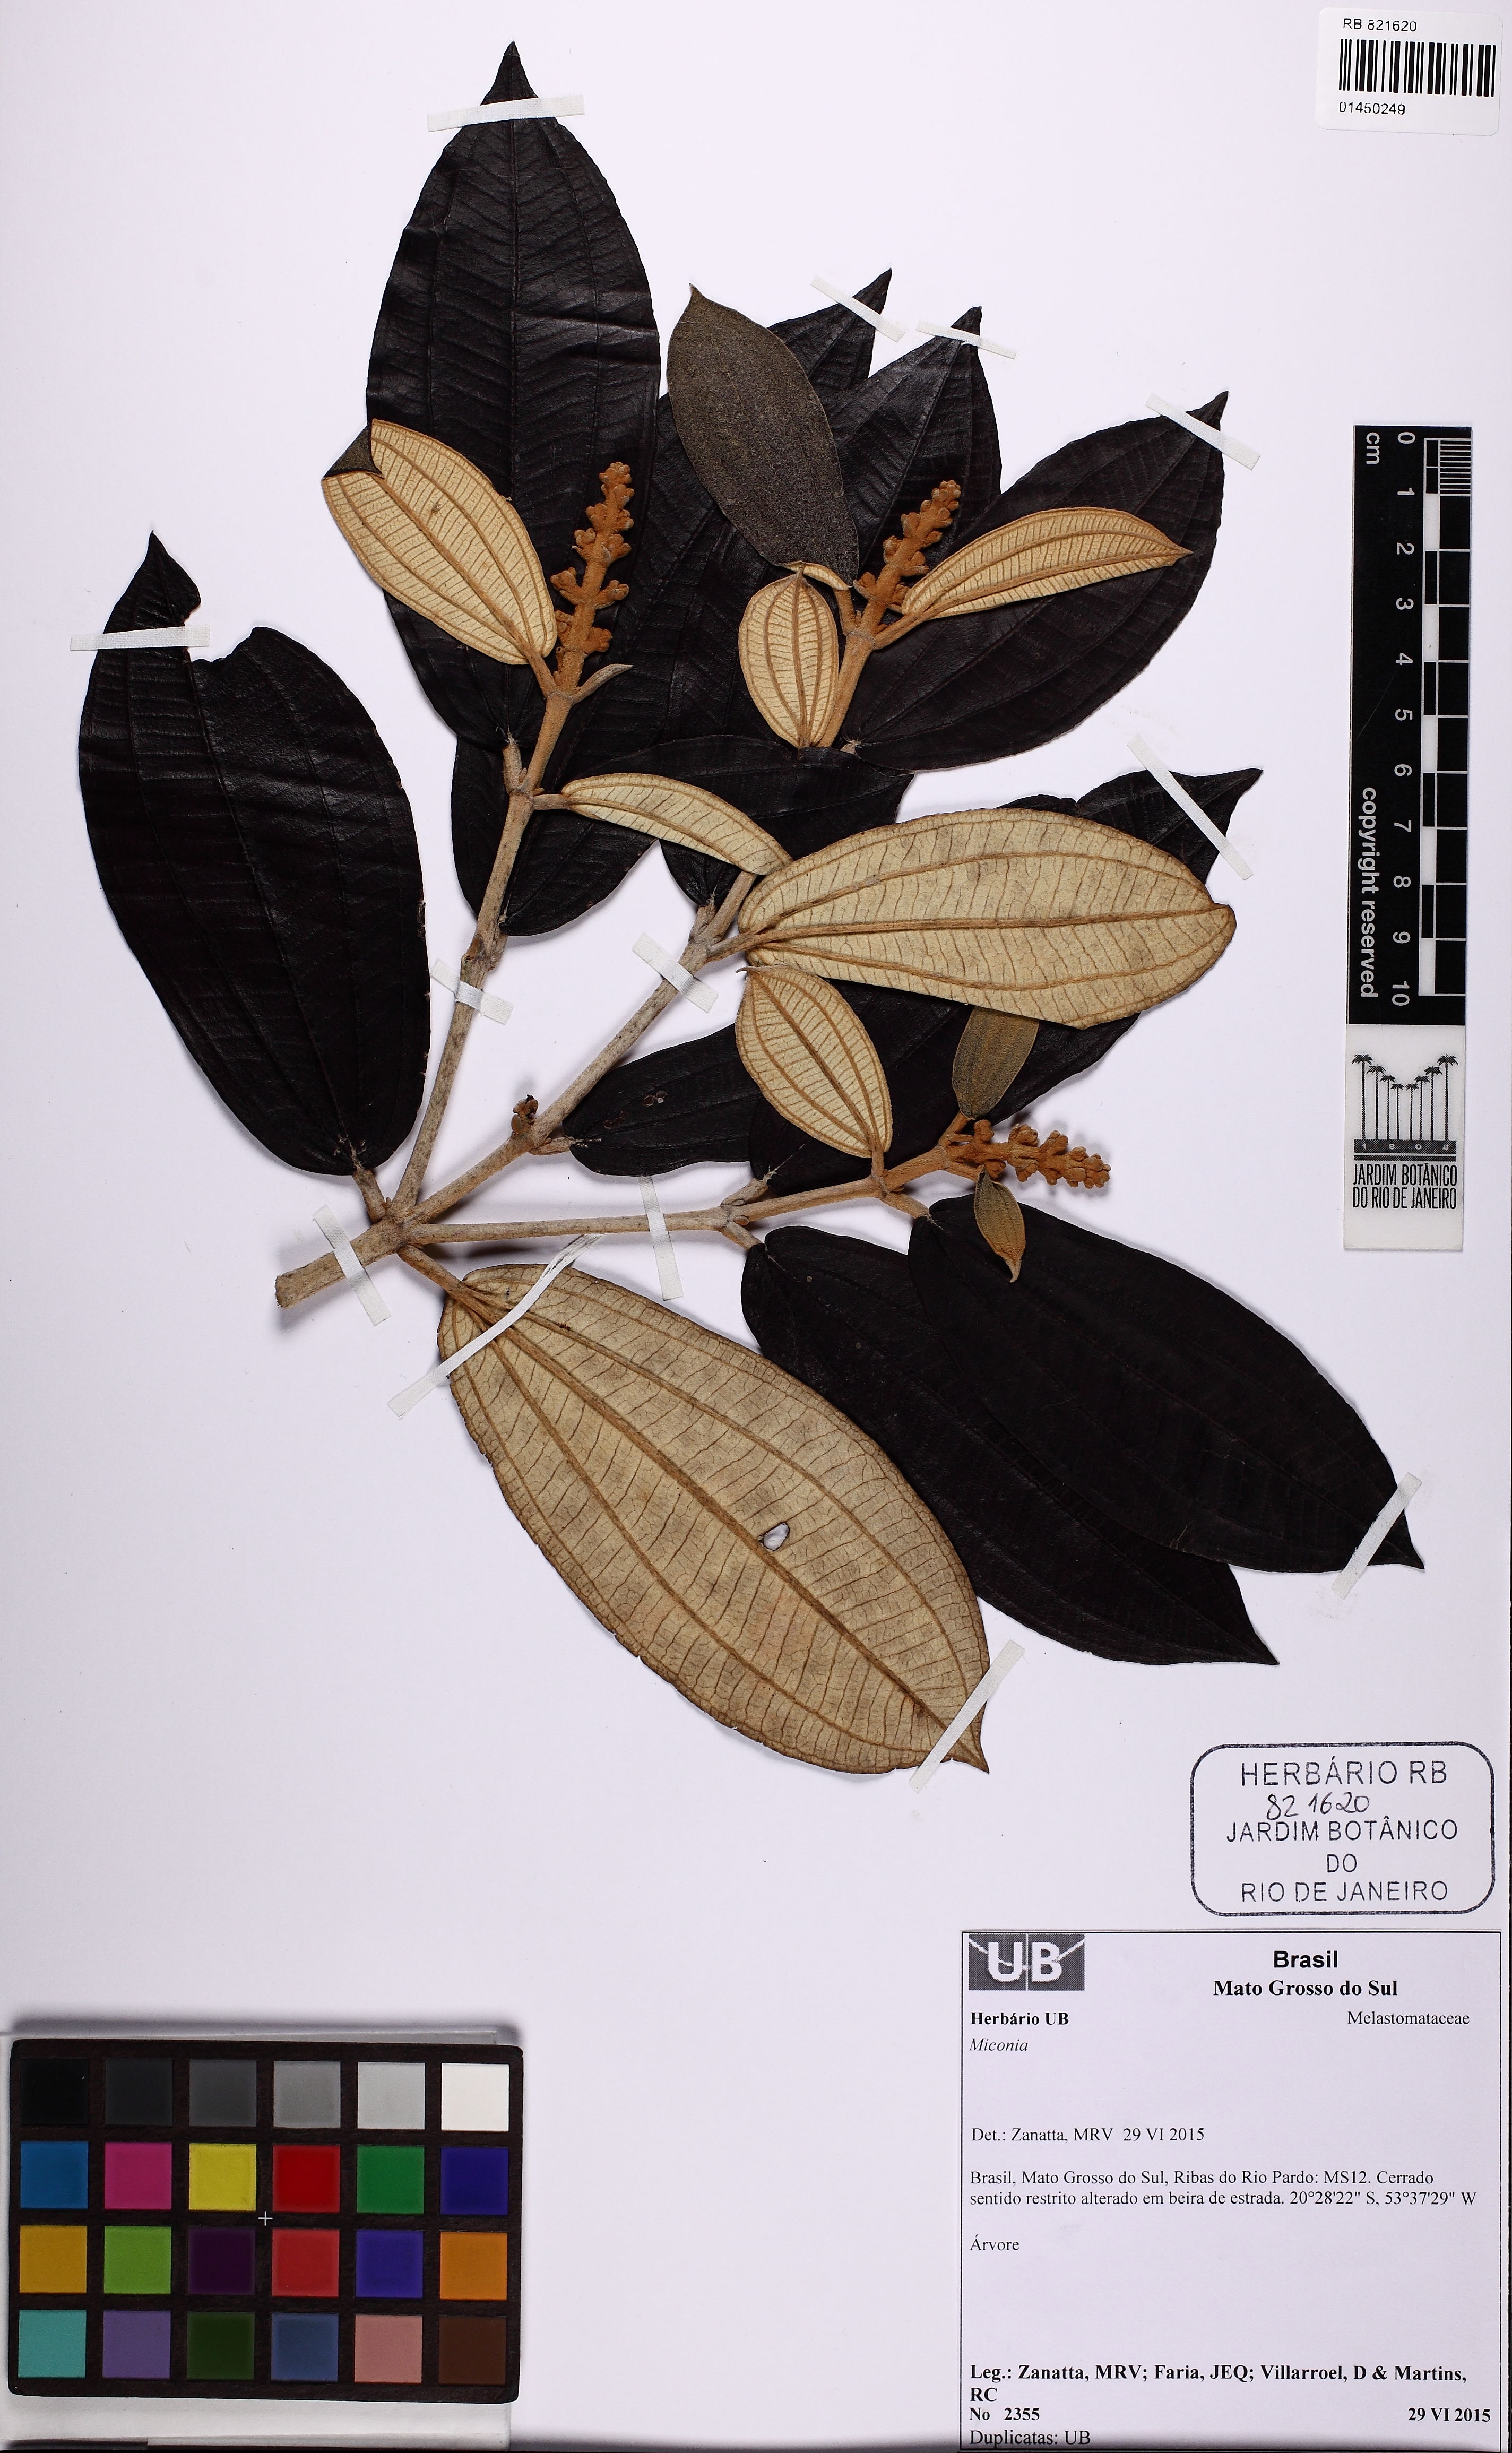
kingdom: Plantae
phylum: Tracheophyta
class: Magnoliopsida
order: Myrtales
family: Melastomataceae
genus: Miconia
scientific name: Miconia
